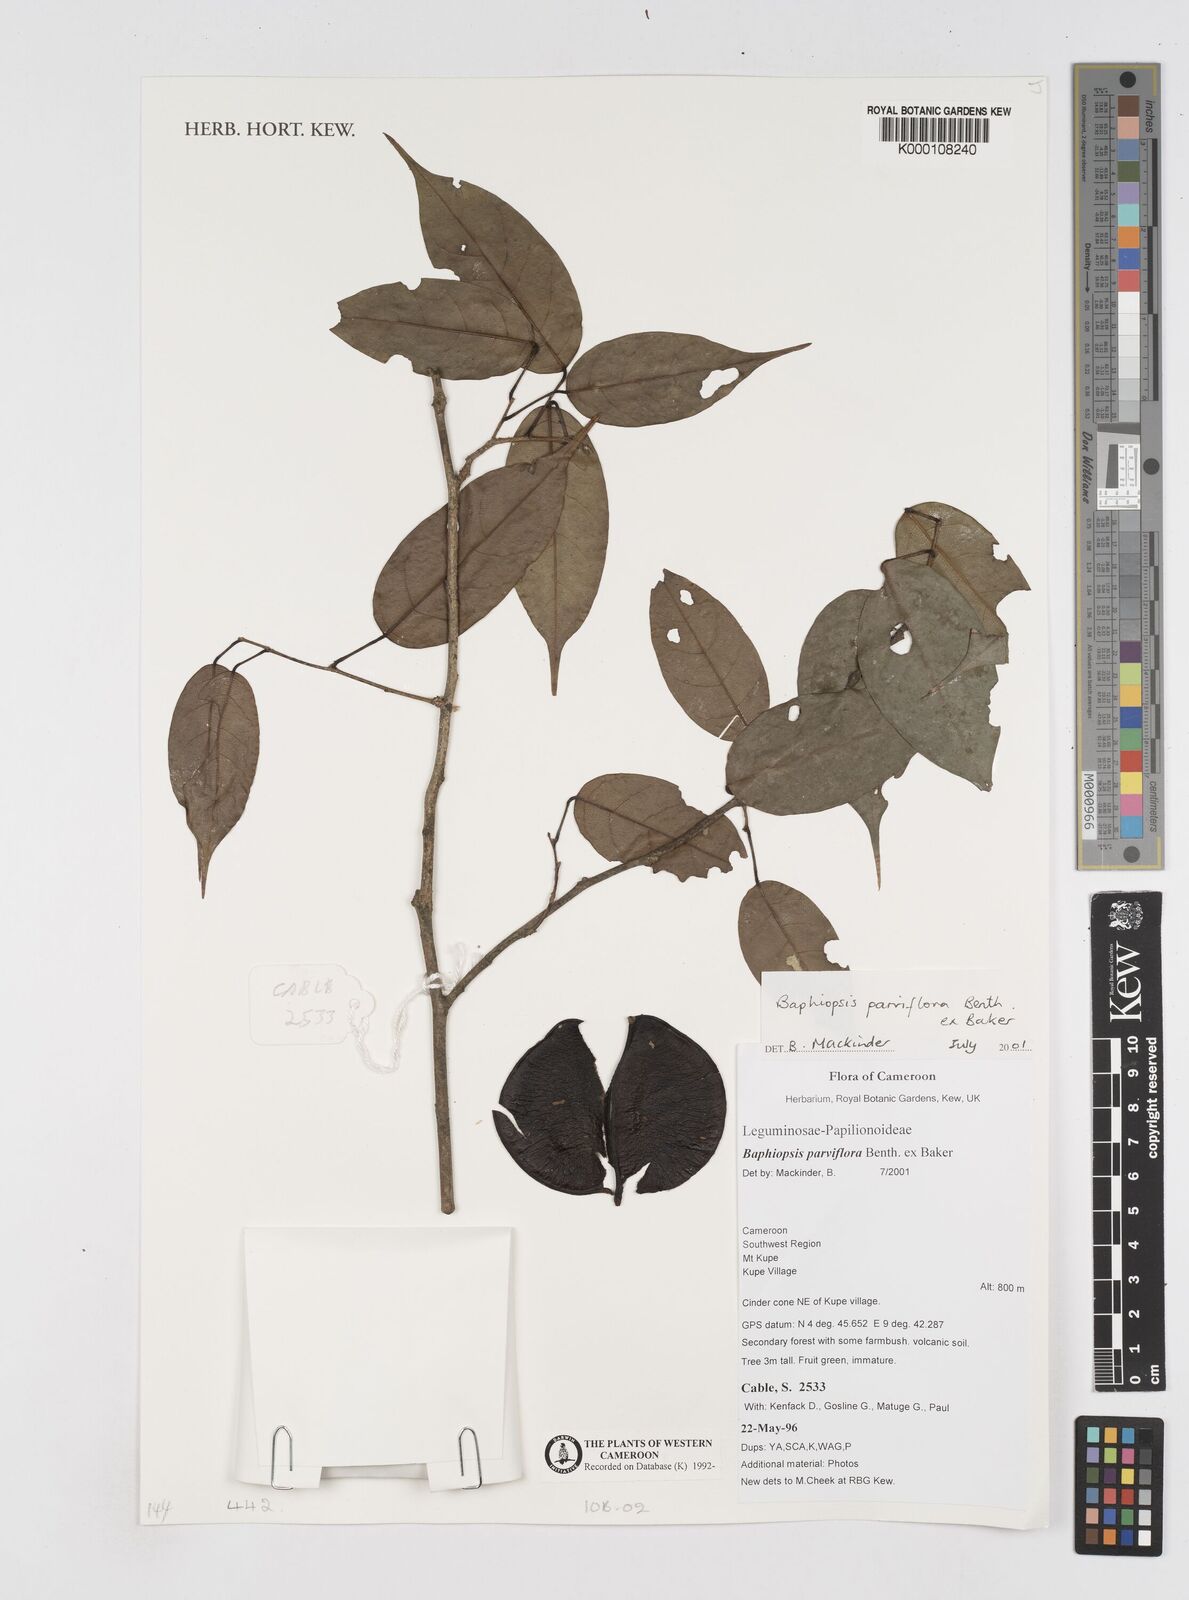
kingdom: Plantae
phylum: Tracheophyta
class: Magnoliopsida
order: Fabales
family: Fabaceae
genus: Baphiopsis
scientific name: Baphiopsis parviflora
